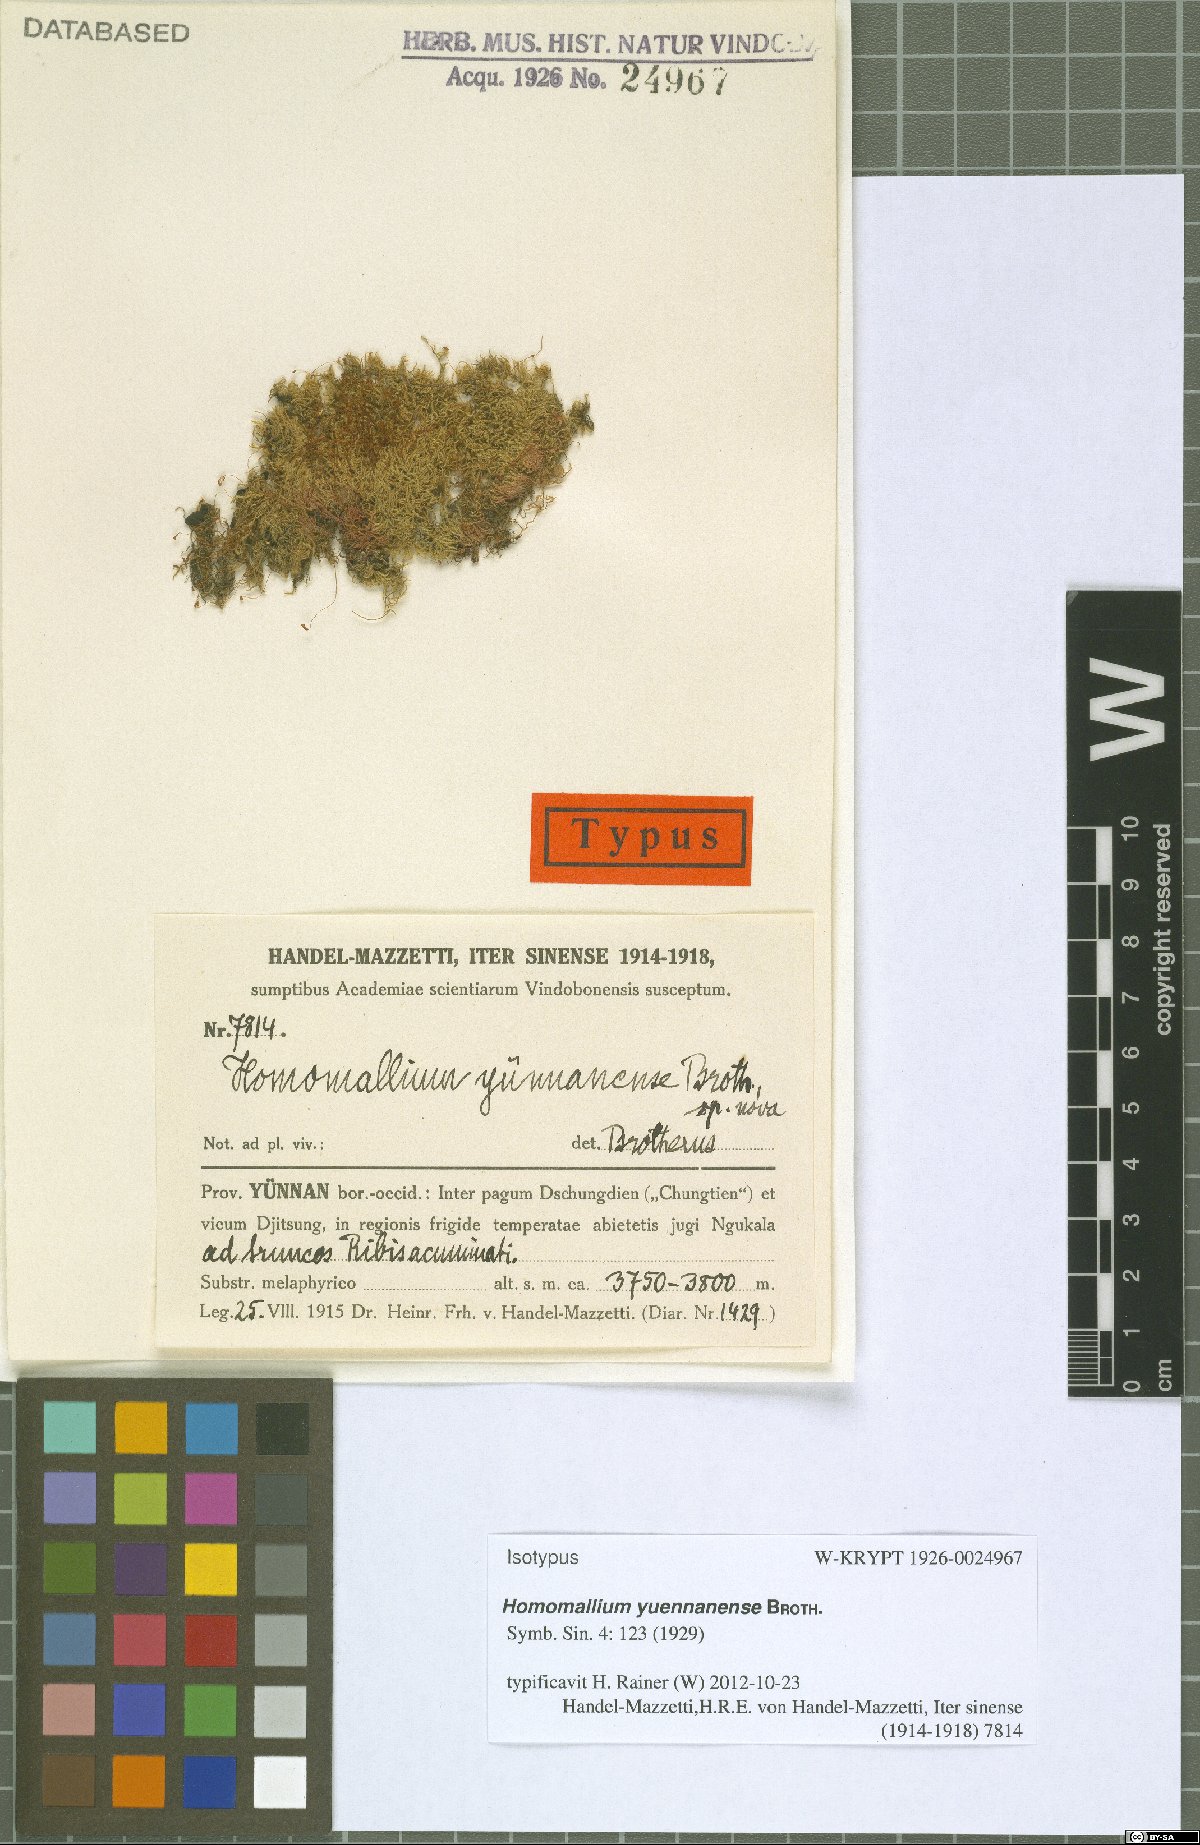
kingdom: Plantae
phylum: Bryophyta
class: Bryopsida
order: Hypnales
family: Pylaisiaceae
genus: Homomallium
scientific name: Homomallium yuennanense
